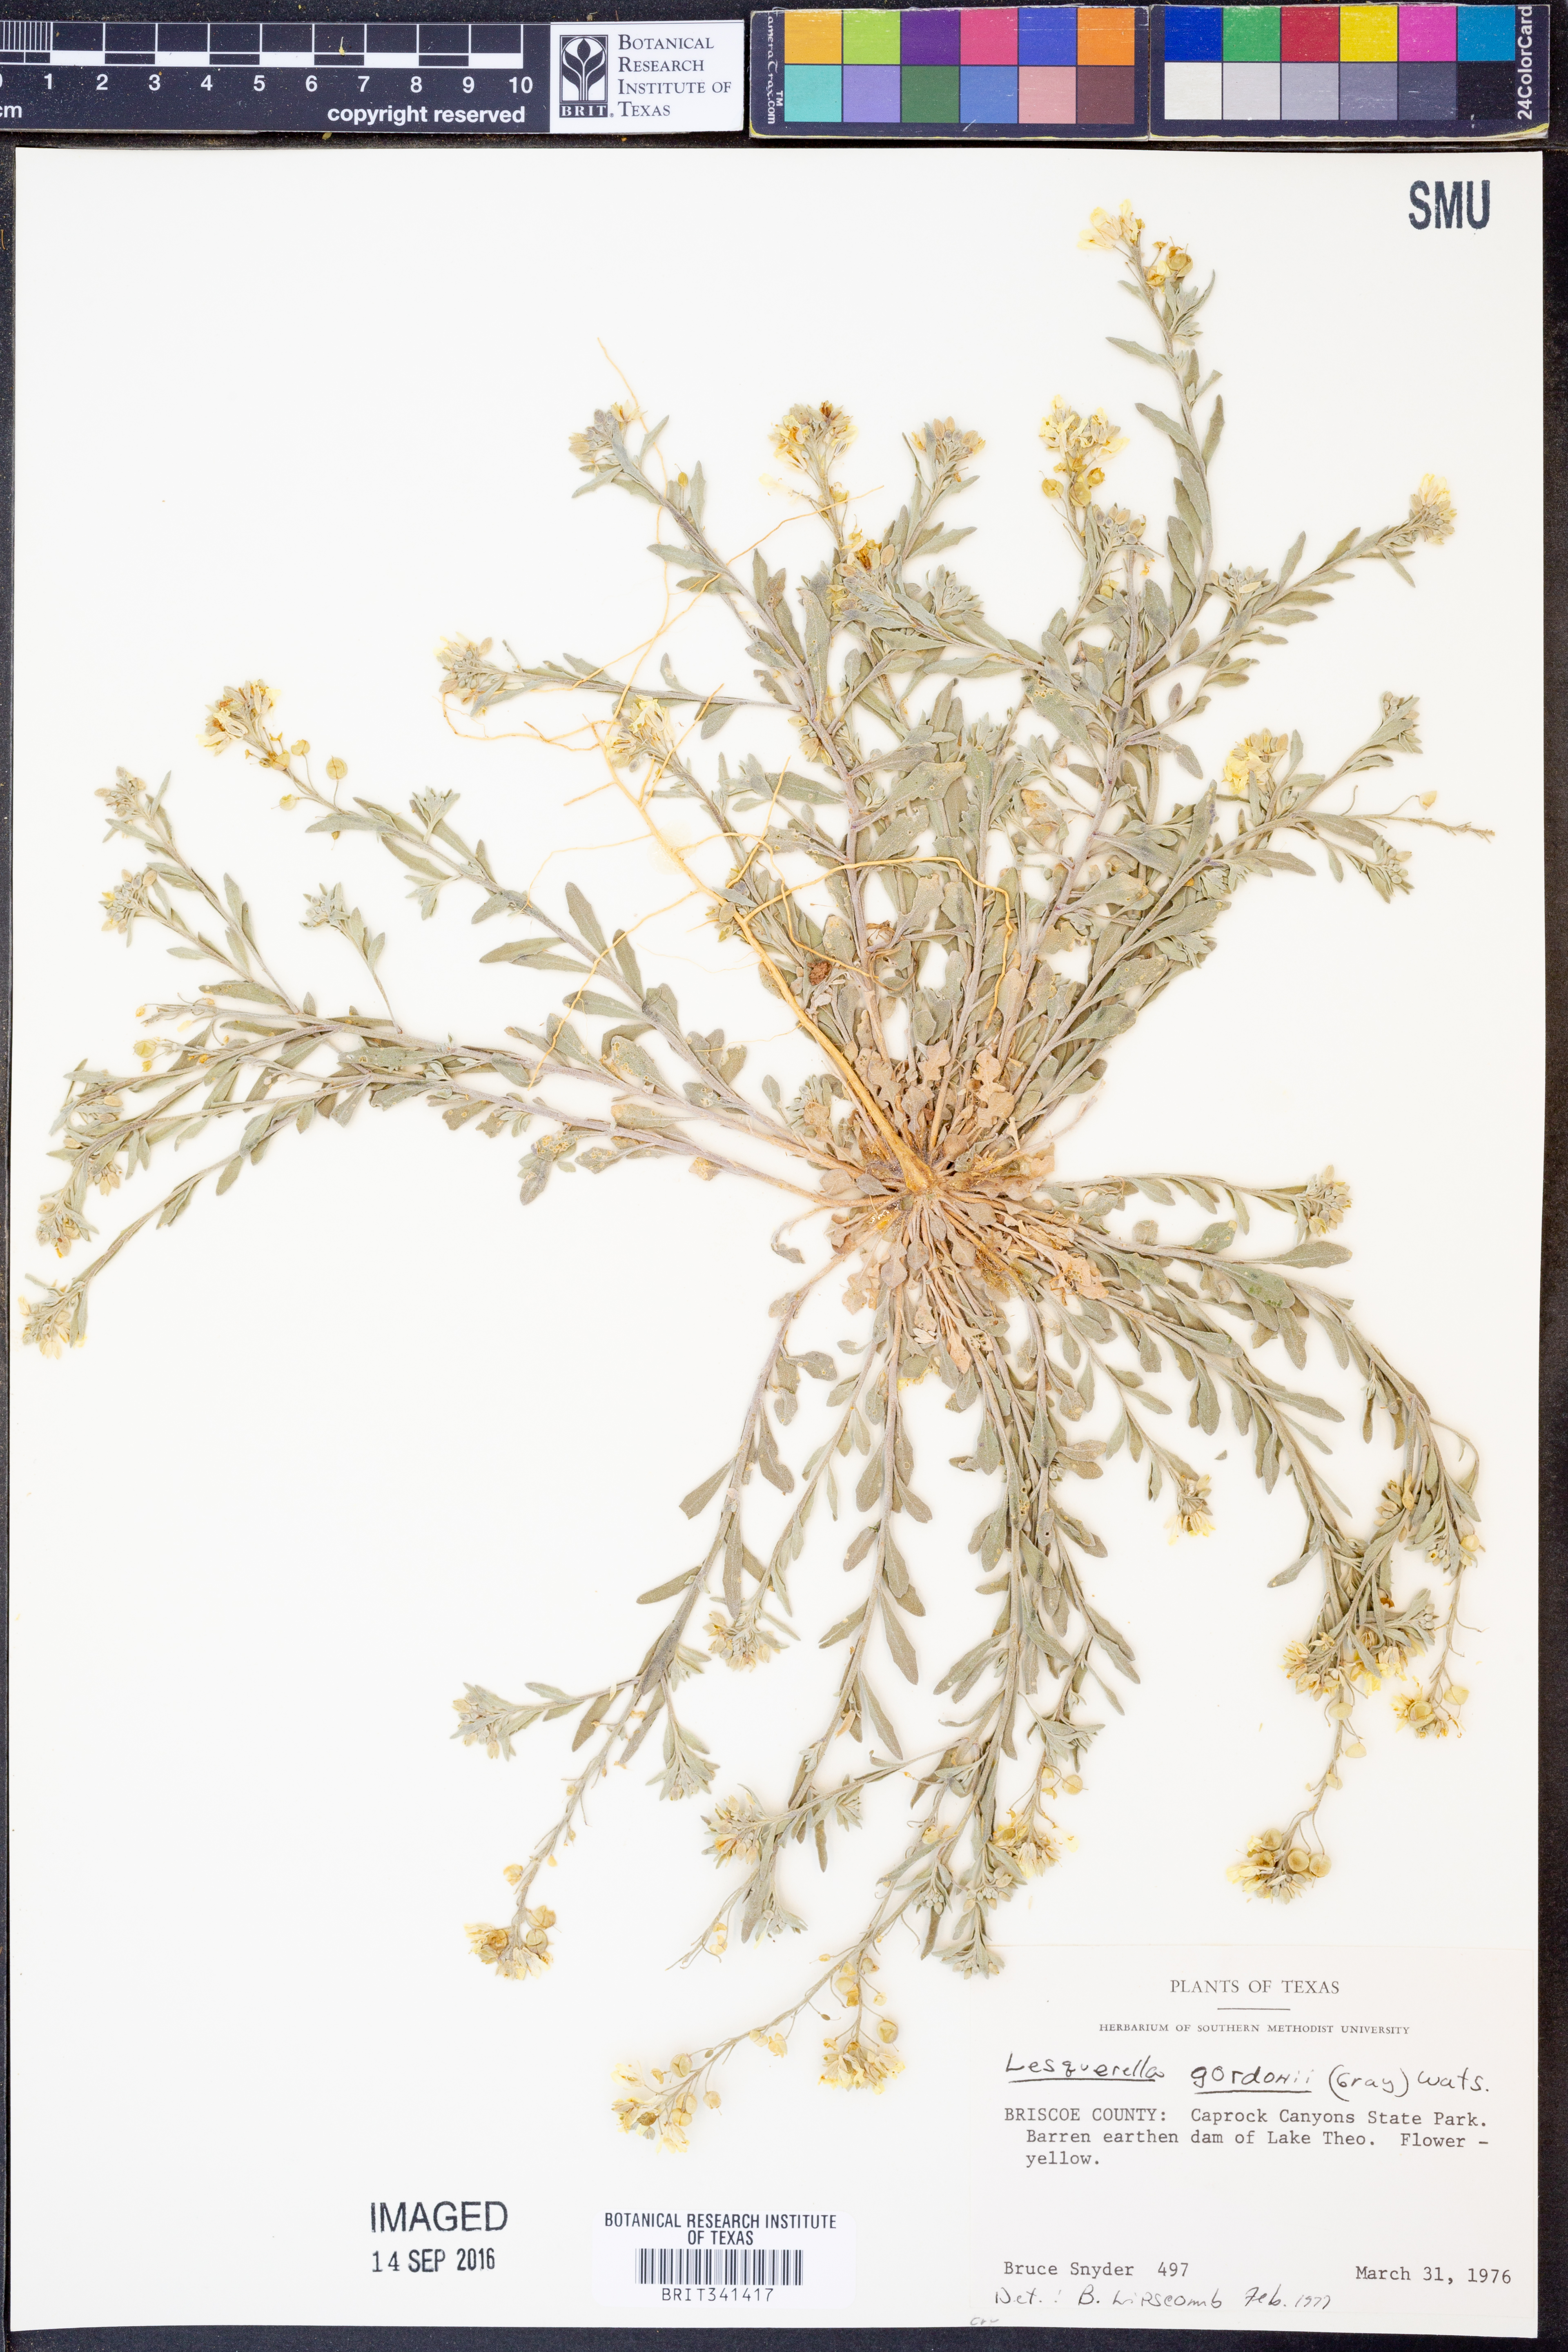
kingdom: Plantae
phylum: Tracheophyta
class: Magnoliopsida
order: Brassicales
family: Brassicaceae
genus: Physaria
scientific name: Physaria gordonii
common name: Gordon's bladderpod
